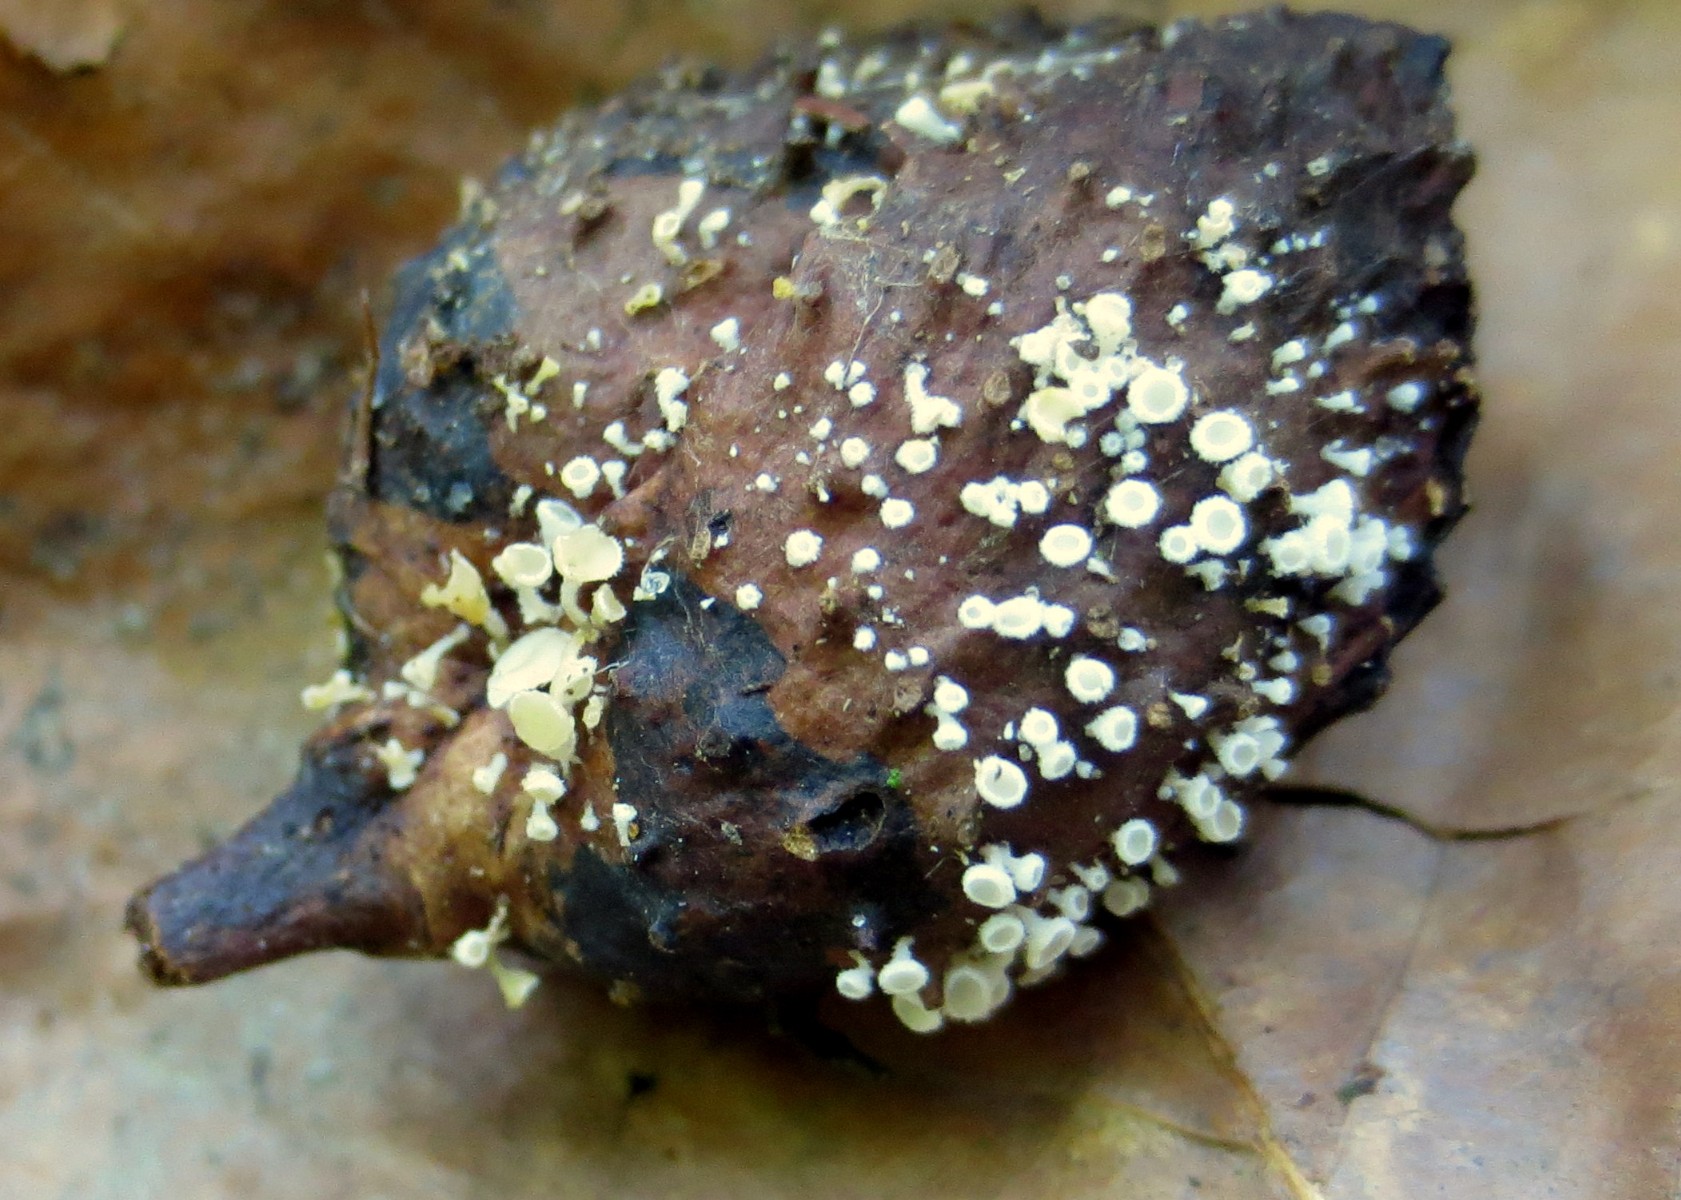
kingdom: Fungi
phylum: Ascomycota
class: Leotiomycetes
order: Helotiales
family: Lachnaceae
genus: Lachnum
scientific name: Lachnum virgineum
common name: jomfru-frynseskive
